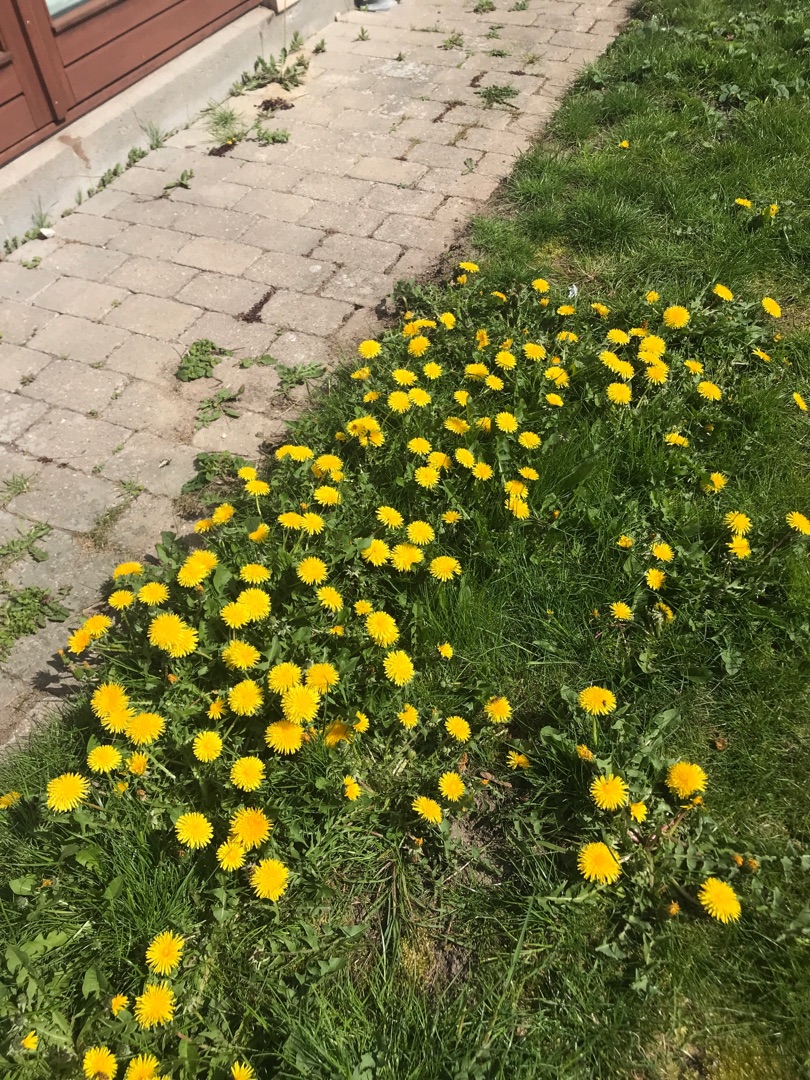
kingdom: Plantae
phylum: Tracheophyta
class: Magnoliopsida
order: Asterales
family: Asteraceae
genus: Taraxacum
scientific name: Taraxacum
